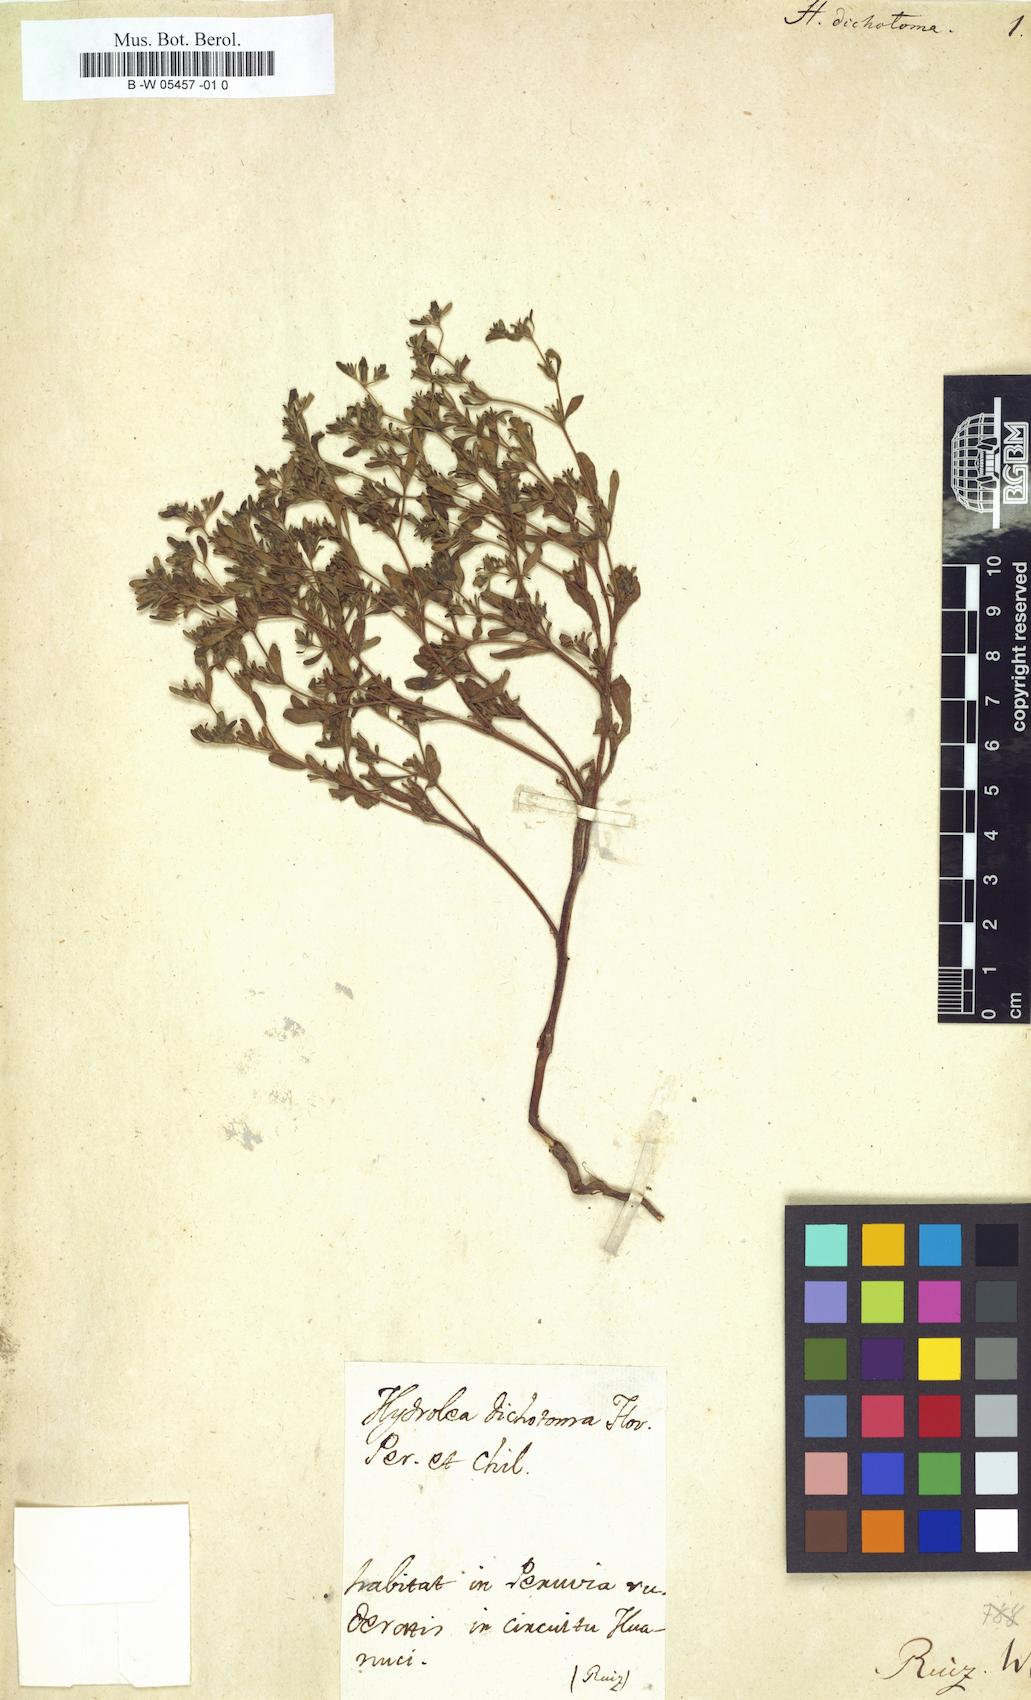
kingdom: Plantae
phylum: Tracheophyta
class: Magnoliopsida
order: Boraginales
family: Namaceae
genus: Nama
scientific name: Nama dichotoma
